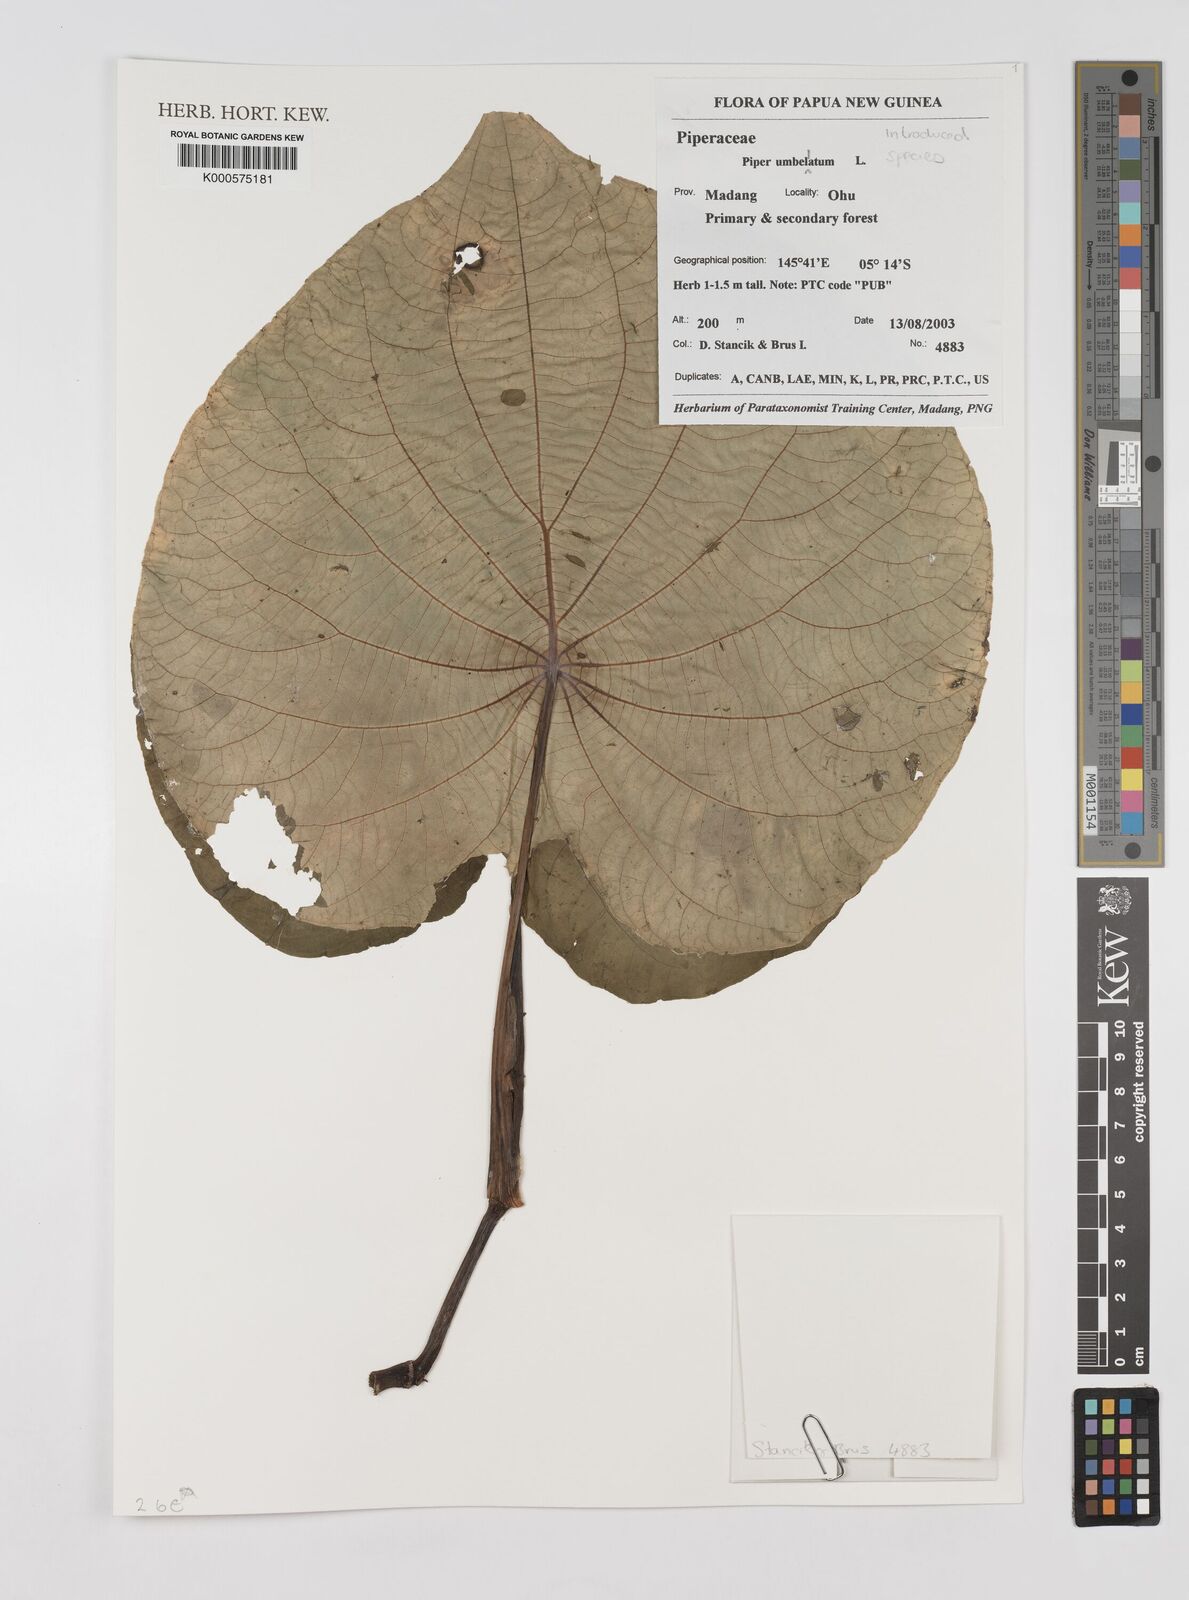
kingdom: Plantae
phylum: Tracheophyta
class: Magnoliopsida
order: Piperales
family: Piperaceae
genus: Piper
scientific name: Piper umbellatum
